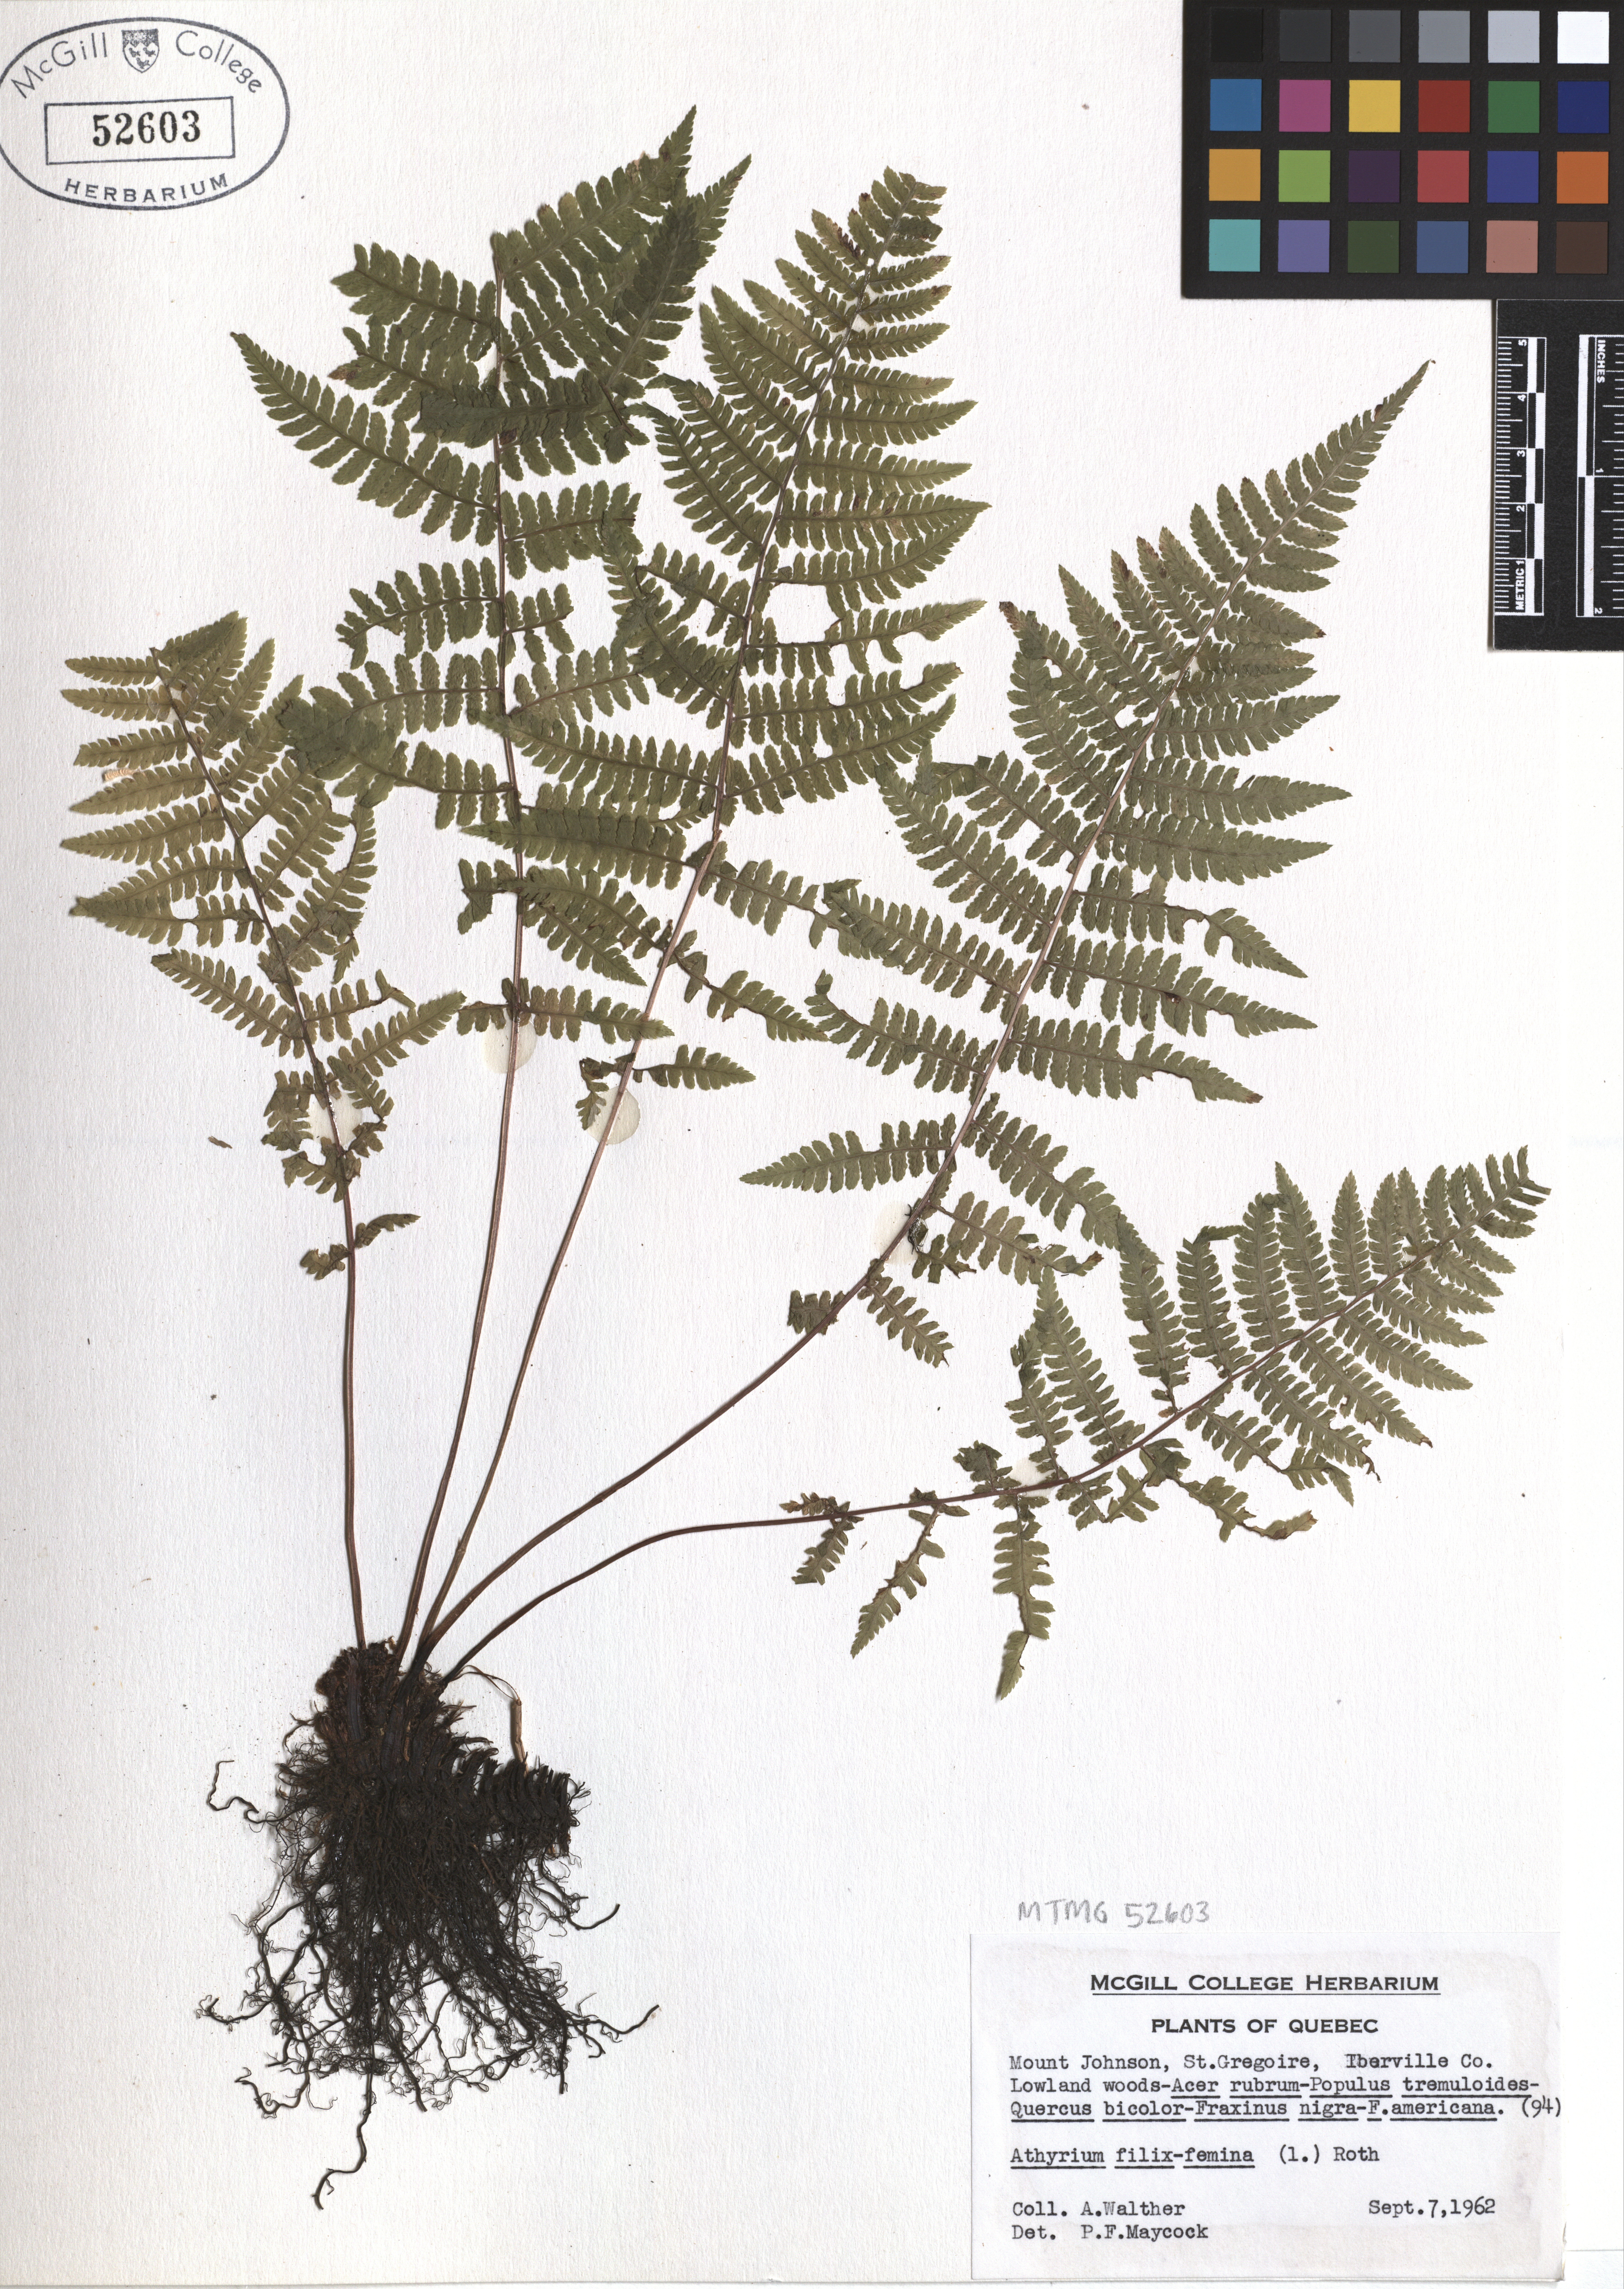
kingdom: Plantae
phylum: Tracheophyta
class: Polypodiopsida
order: Polypodiales
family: Athyriaceae
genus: Athyrium
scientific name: Athyrium filix-femina
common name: Lady fern
